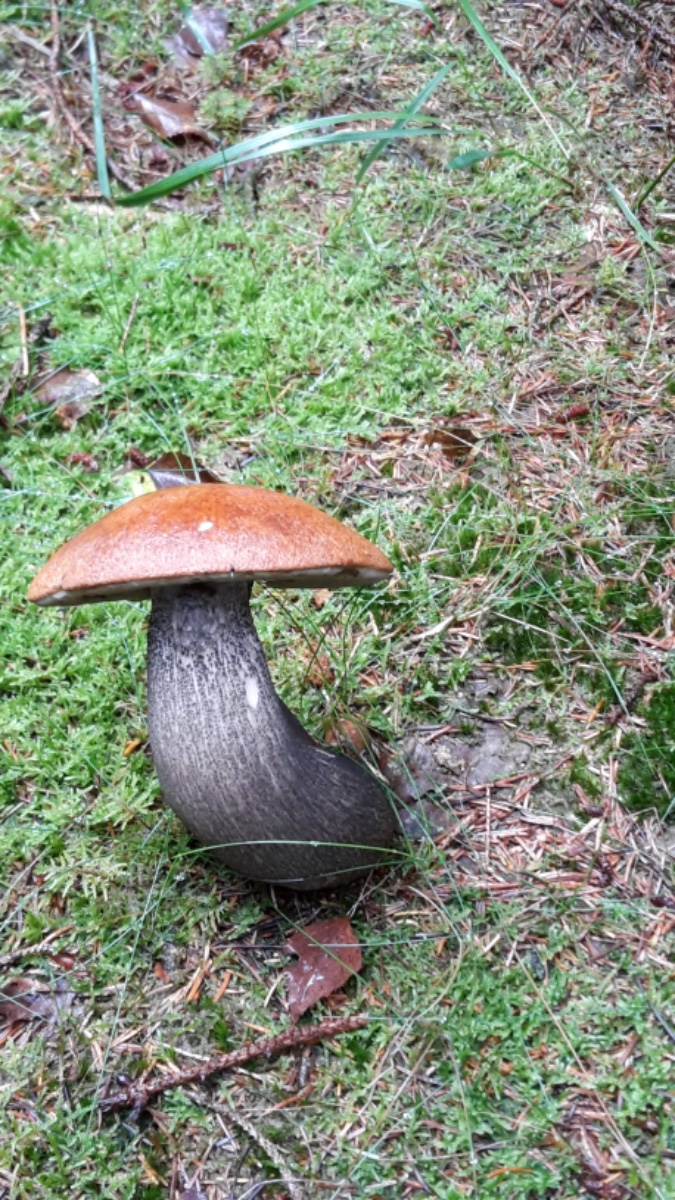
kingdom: Fungi
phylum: Basidiomycota
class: Agaricomycetes
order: Boletales
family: Boletaceae
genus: Leccinum
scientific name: Leccinum versipelle
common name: orange skælrørhat
